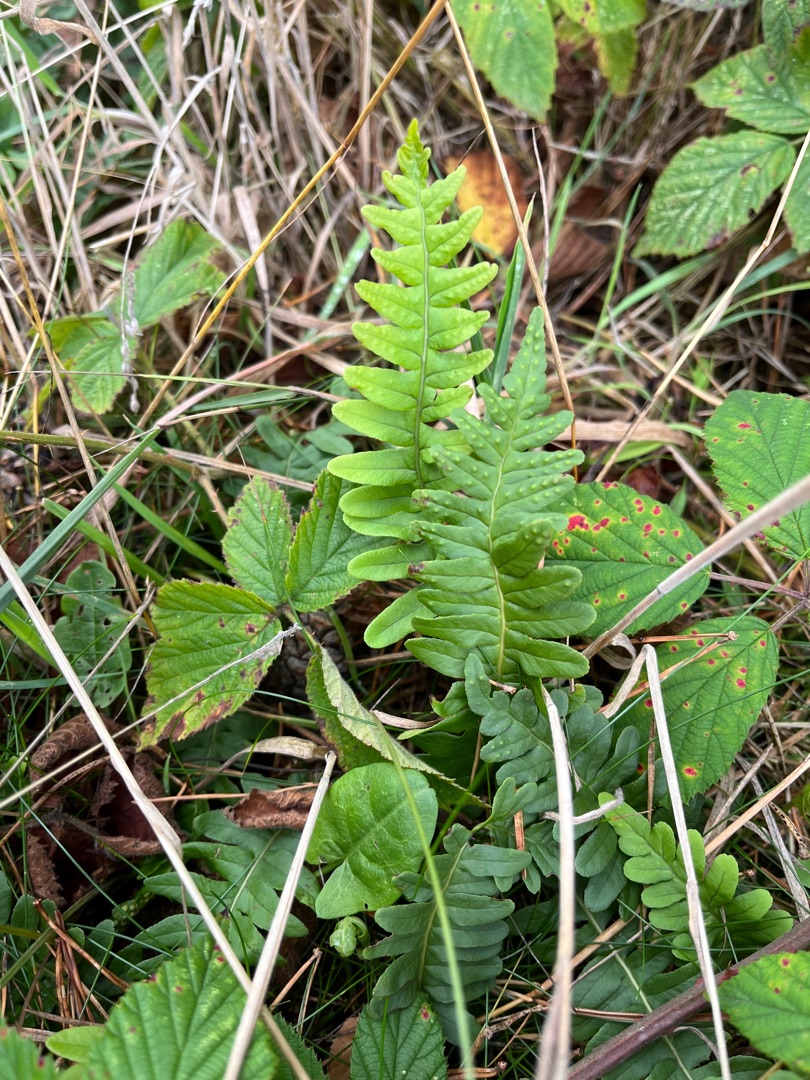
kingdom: Plantae
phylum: Tracheophyta
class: Polypodiopsida
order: Polypodiales
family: Polypodiaceae
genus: Polypodium
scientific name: Polypodium vulgare
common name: Almindelig engelsød
